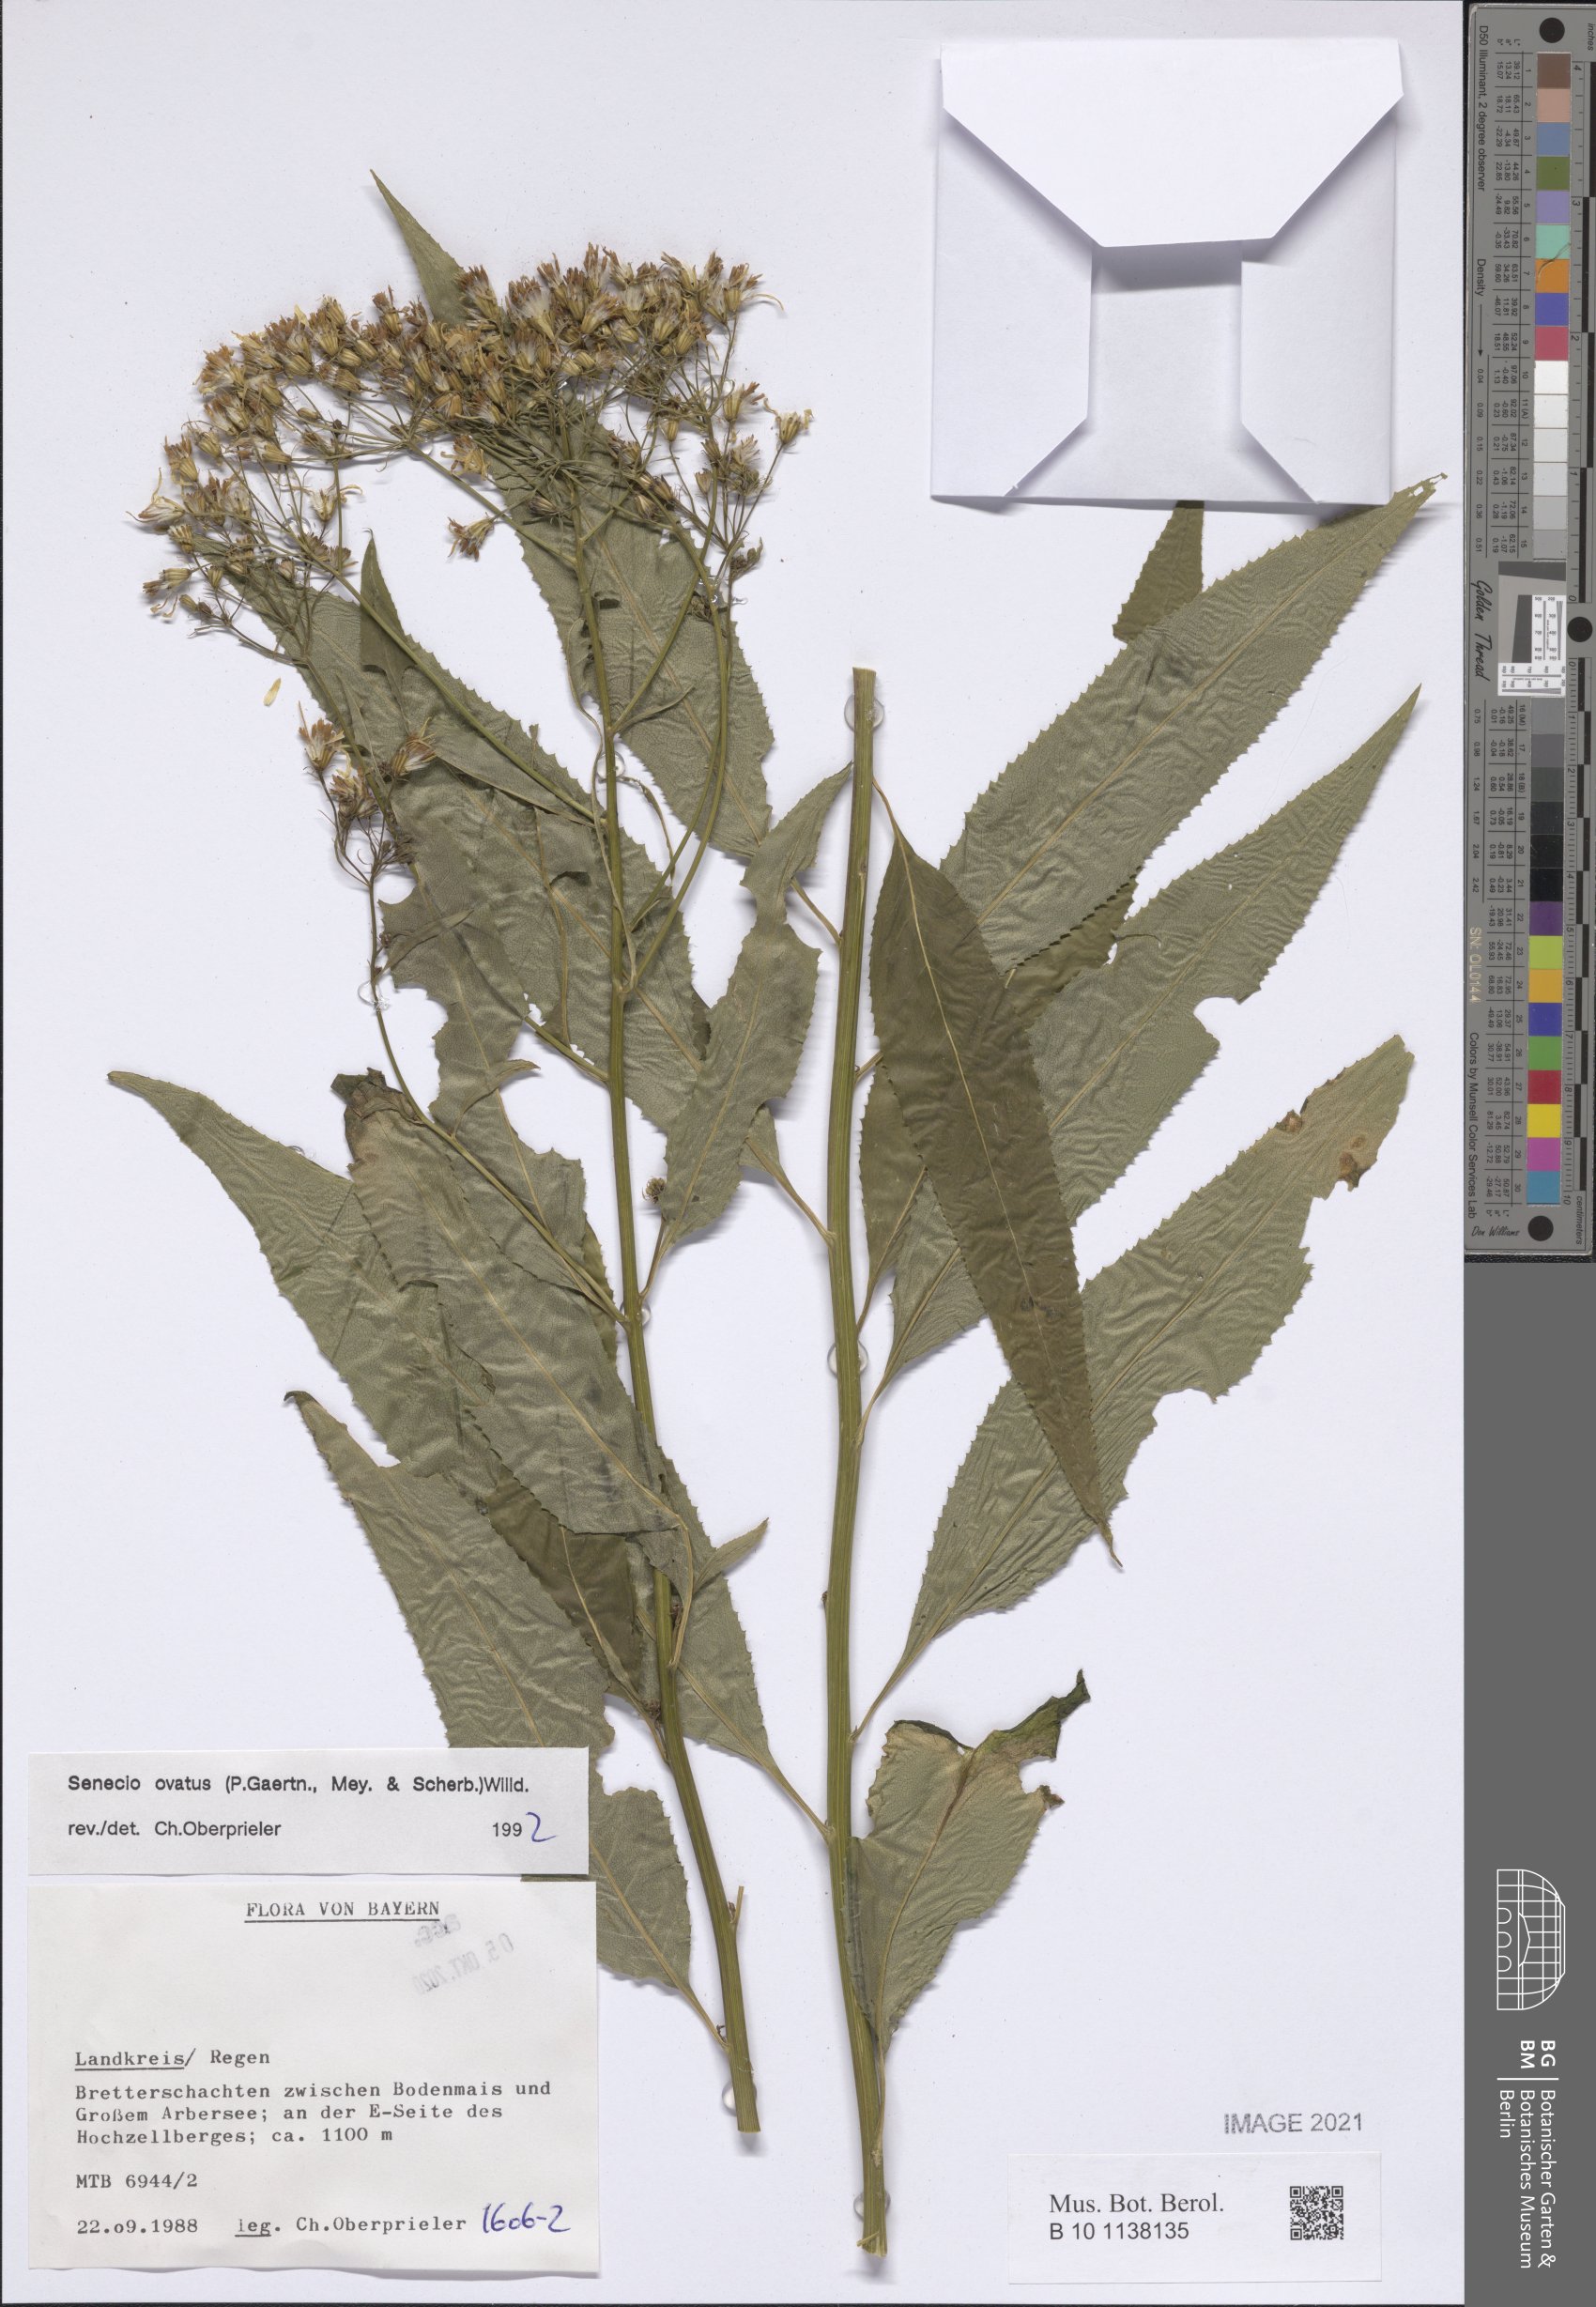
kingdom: Plantae
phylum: Tracheophyta
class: Magnoliopsida
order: Asterales
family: Asteraceae
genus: Senecio
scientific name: Senecio ovatus
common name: Wood ragwort
